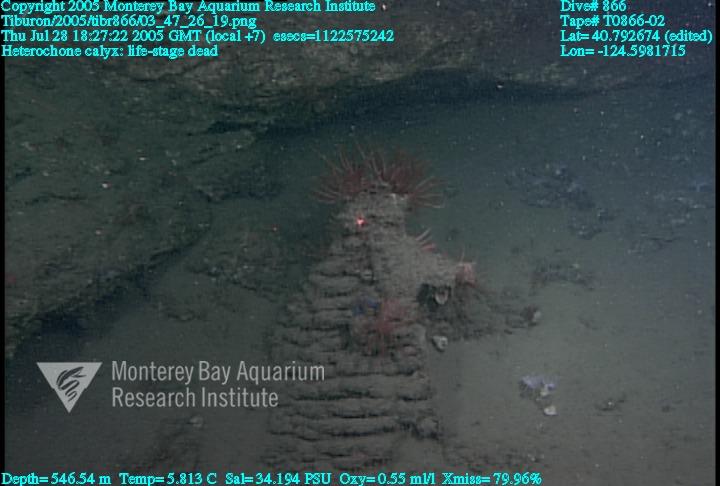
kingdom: Animalia
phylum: Porifera
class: Hexactinellida
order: Sceptrulophora
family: Aphrocallistidae
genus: Heterochone
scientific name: Heterochone calyx
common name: Fingered goblet glass sponge
